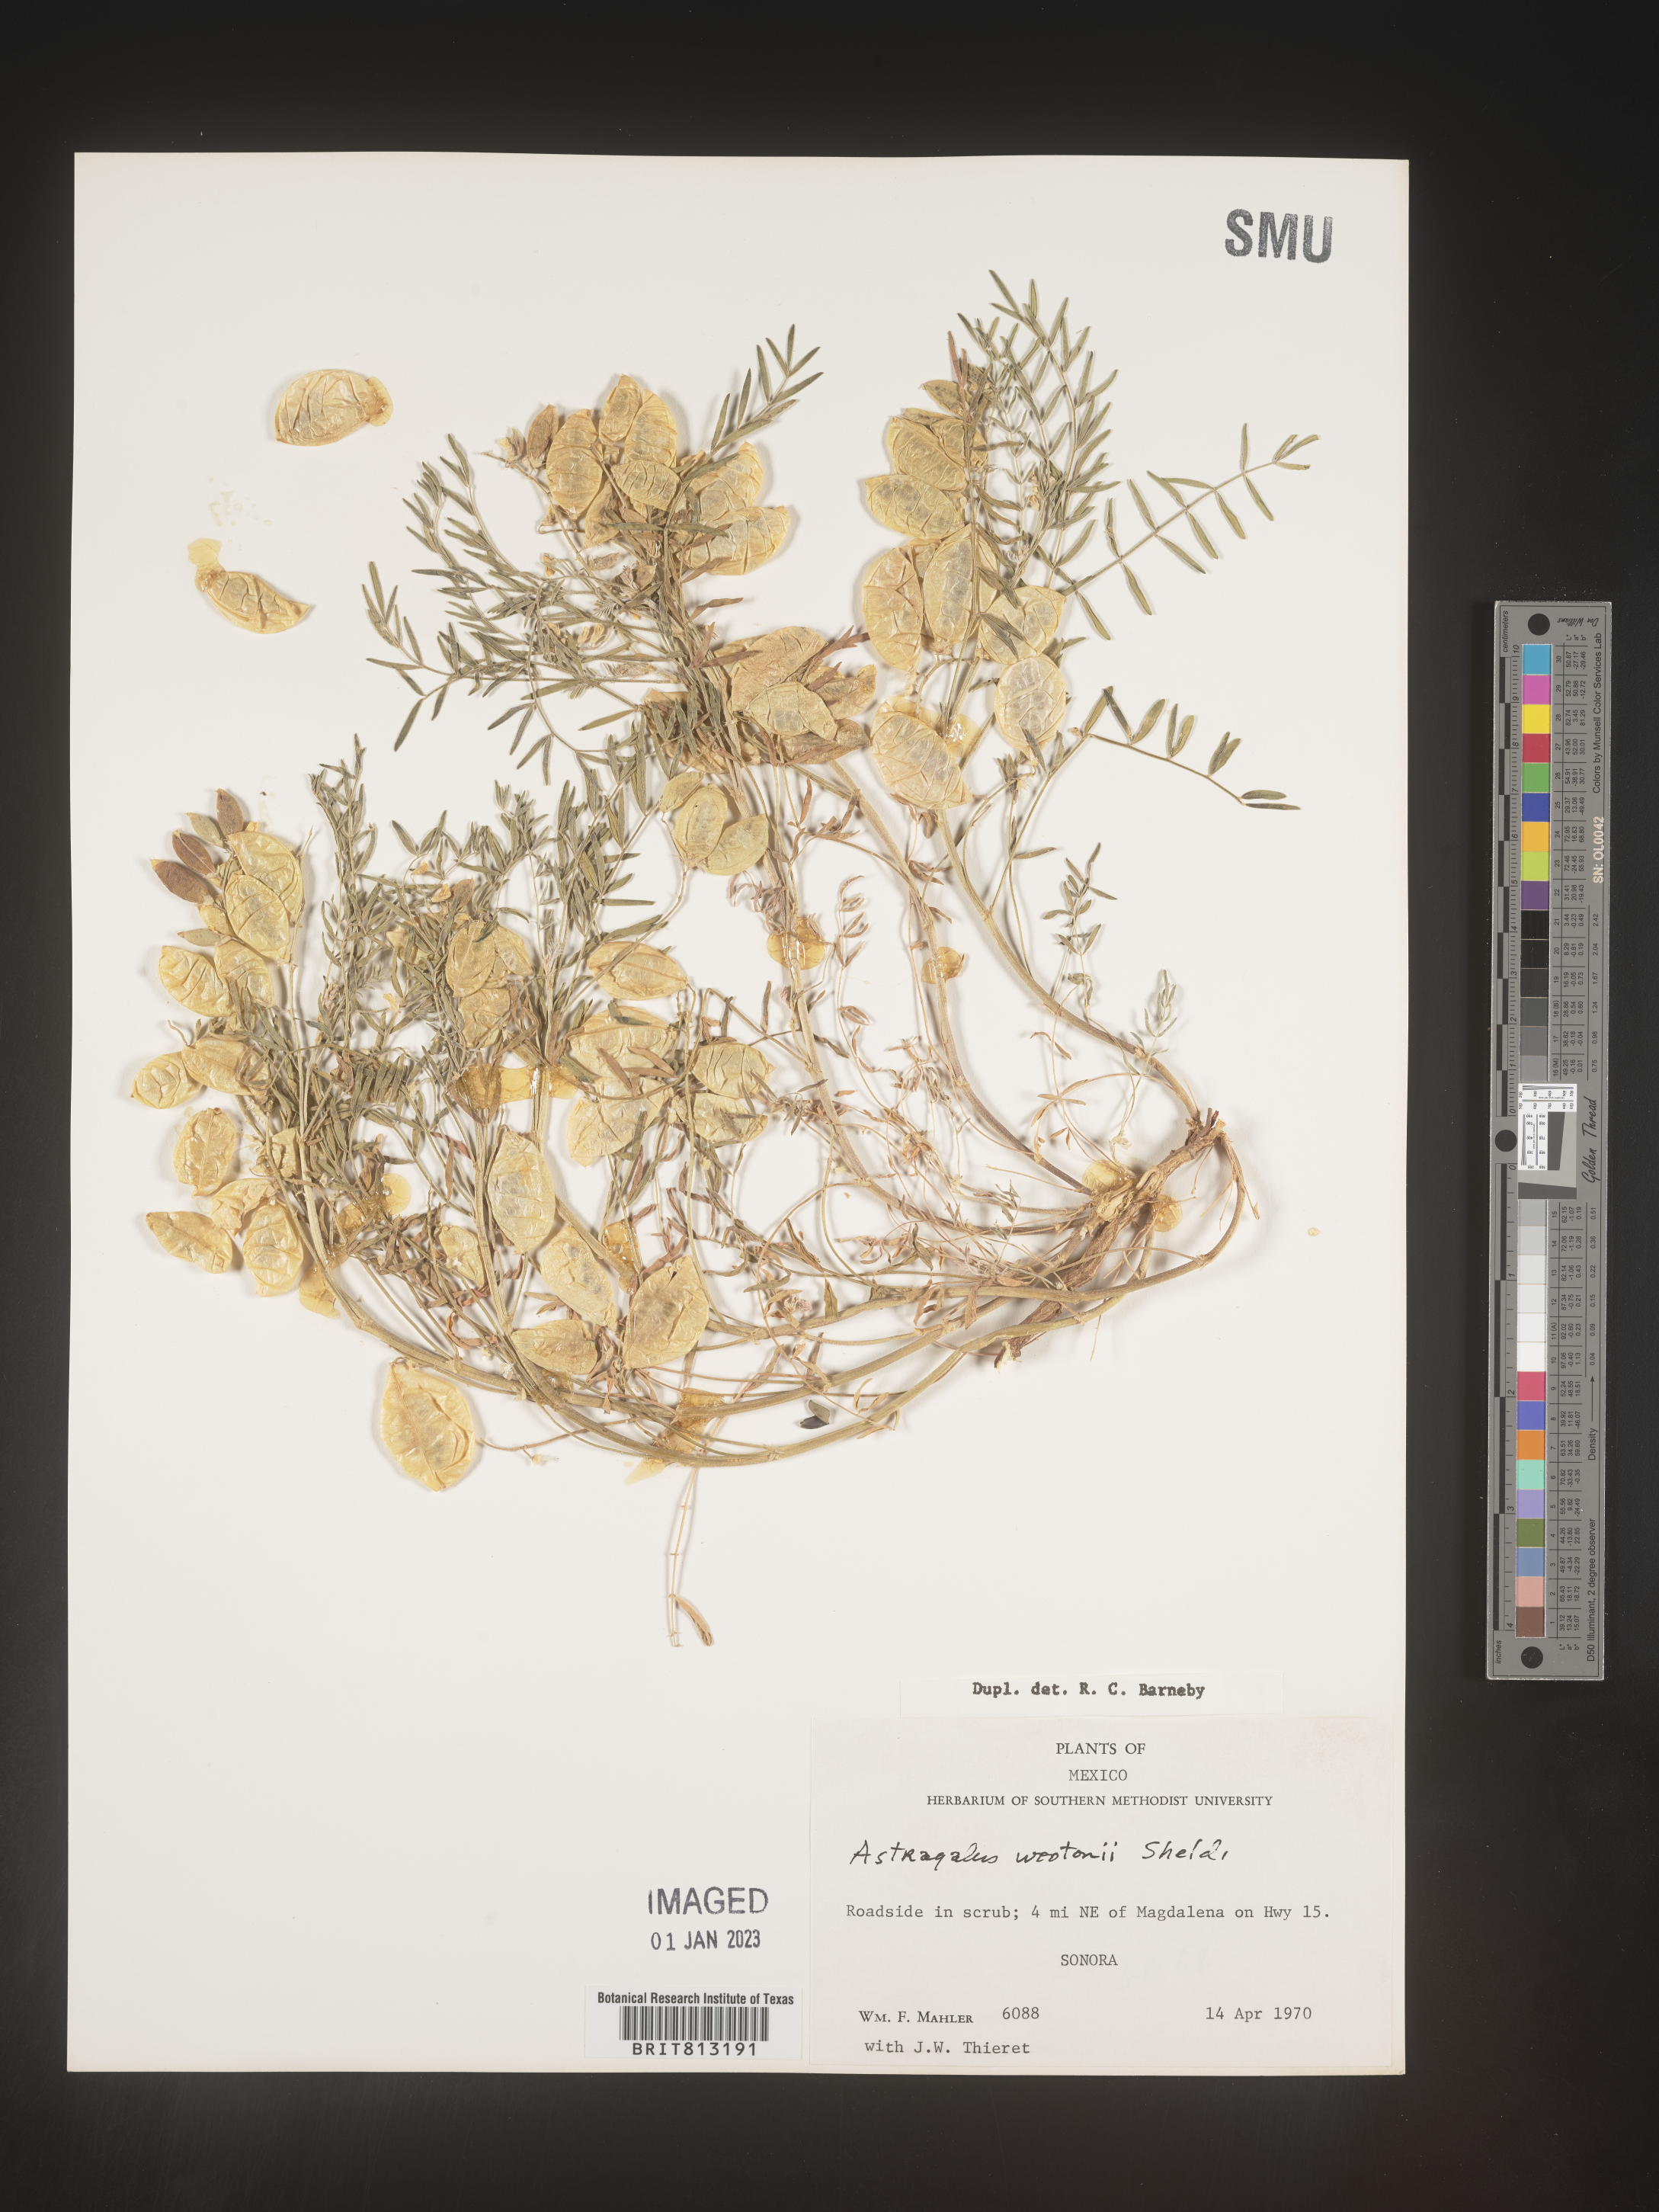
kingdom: Plantae
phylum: Tracheophyta
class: Magnoliopsida
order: Fabales
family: Fabaceae
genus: Astragalus
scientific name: Astragalus
